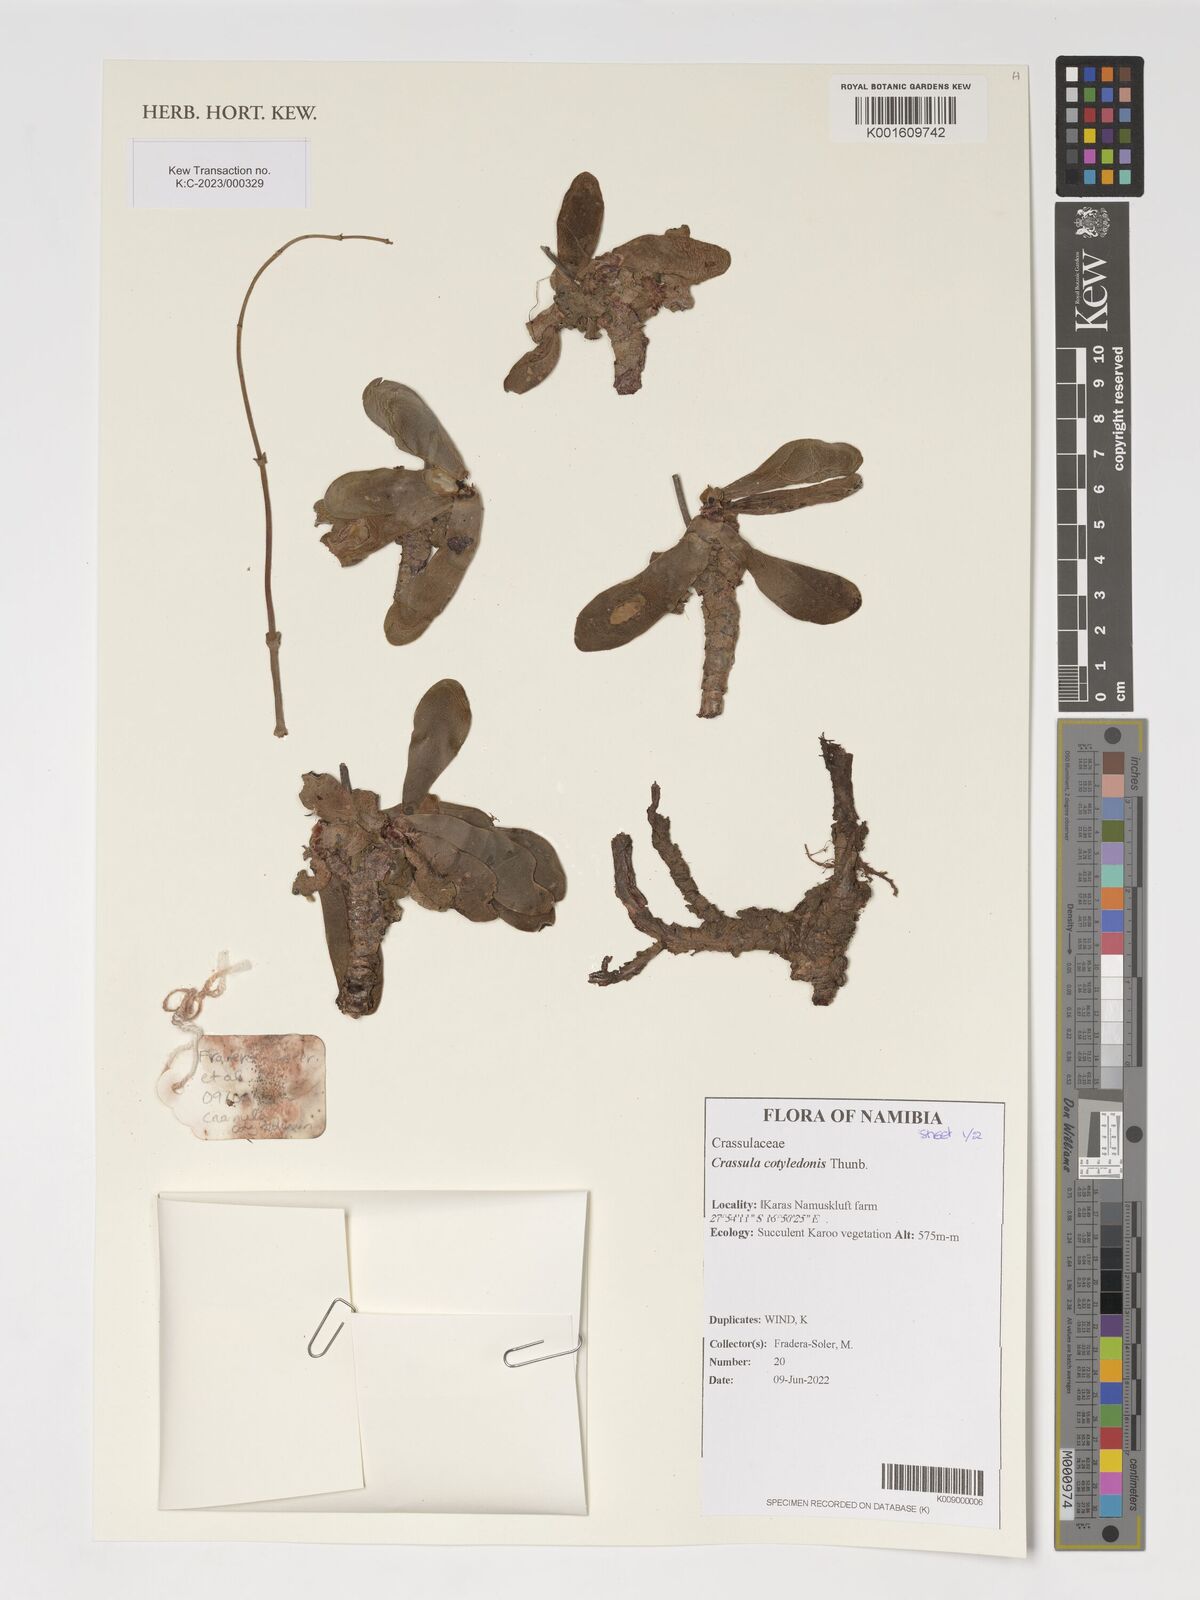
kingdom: Plantae
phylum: Tracheophyta
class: Magnoliopsida
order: Saxifragales
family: Crassulaceae
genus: Crassula
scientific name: Crassula cotyledonis
